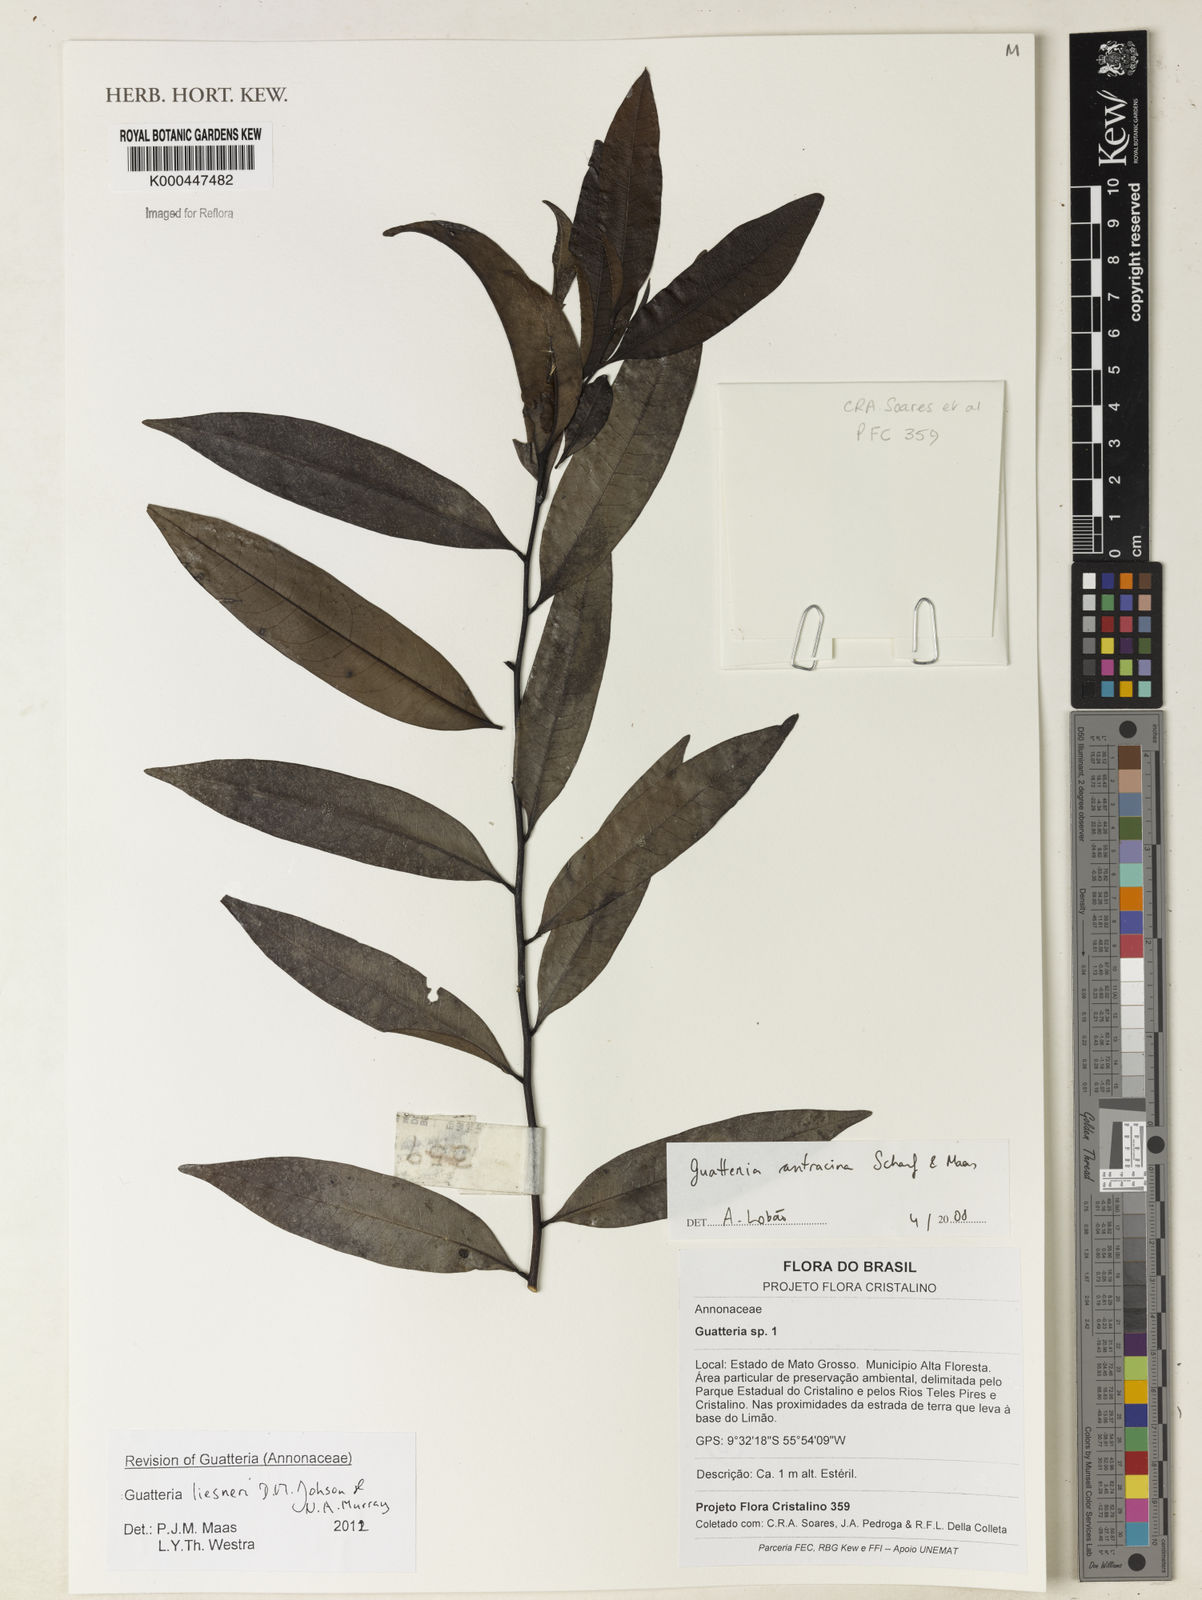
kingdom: Plantae
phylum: Tracheophyta
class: Magnoliopsida
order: Magnoliales
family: Annonaceae
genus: Guatteria
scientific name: Guatteria anthracina
